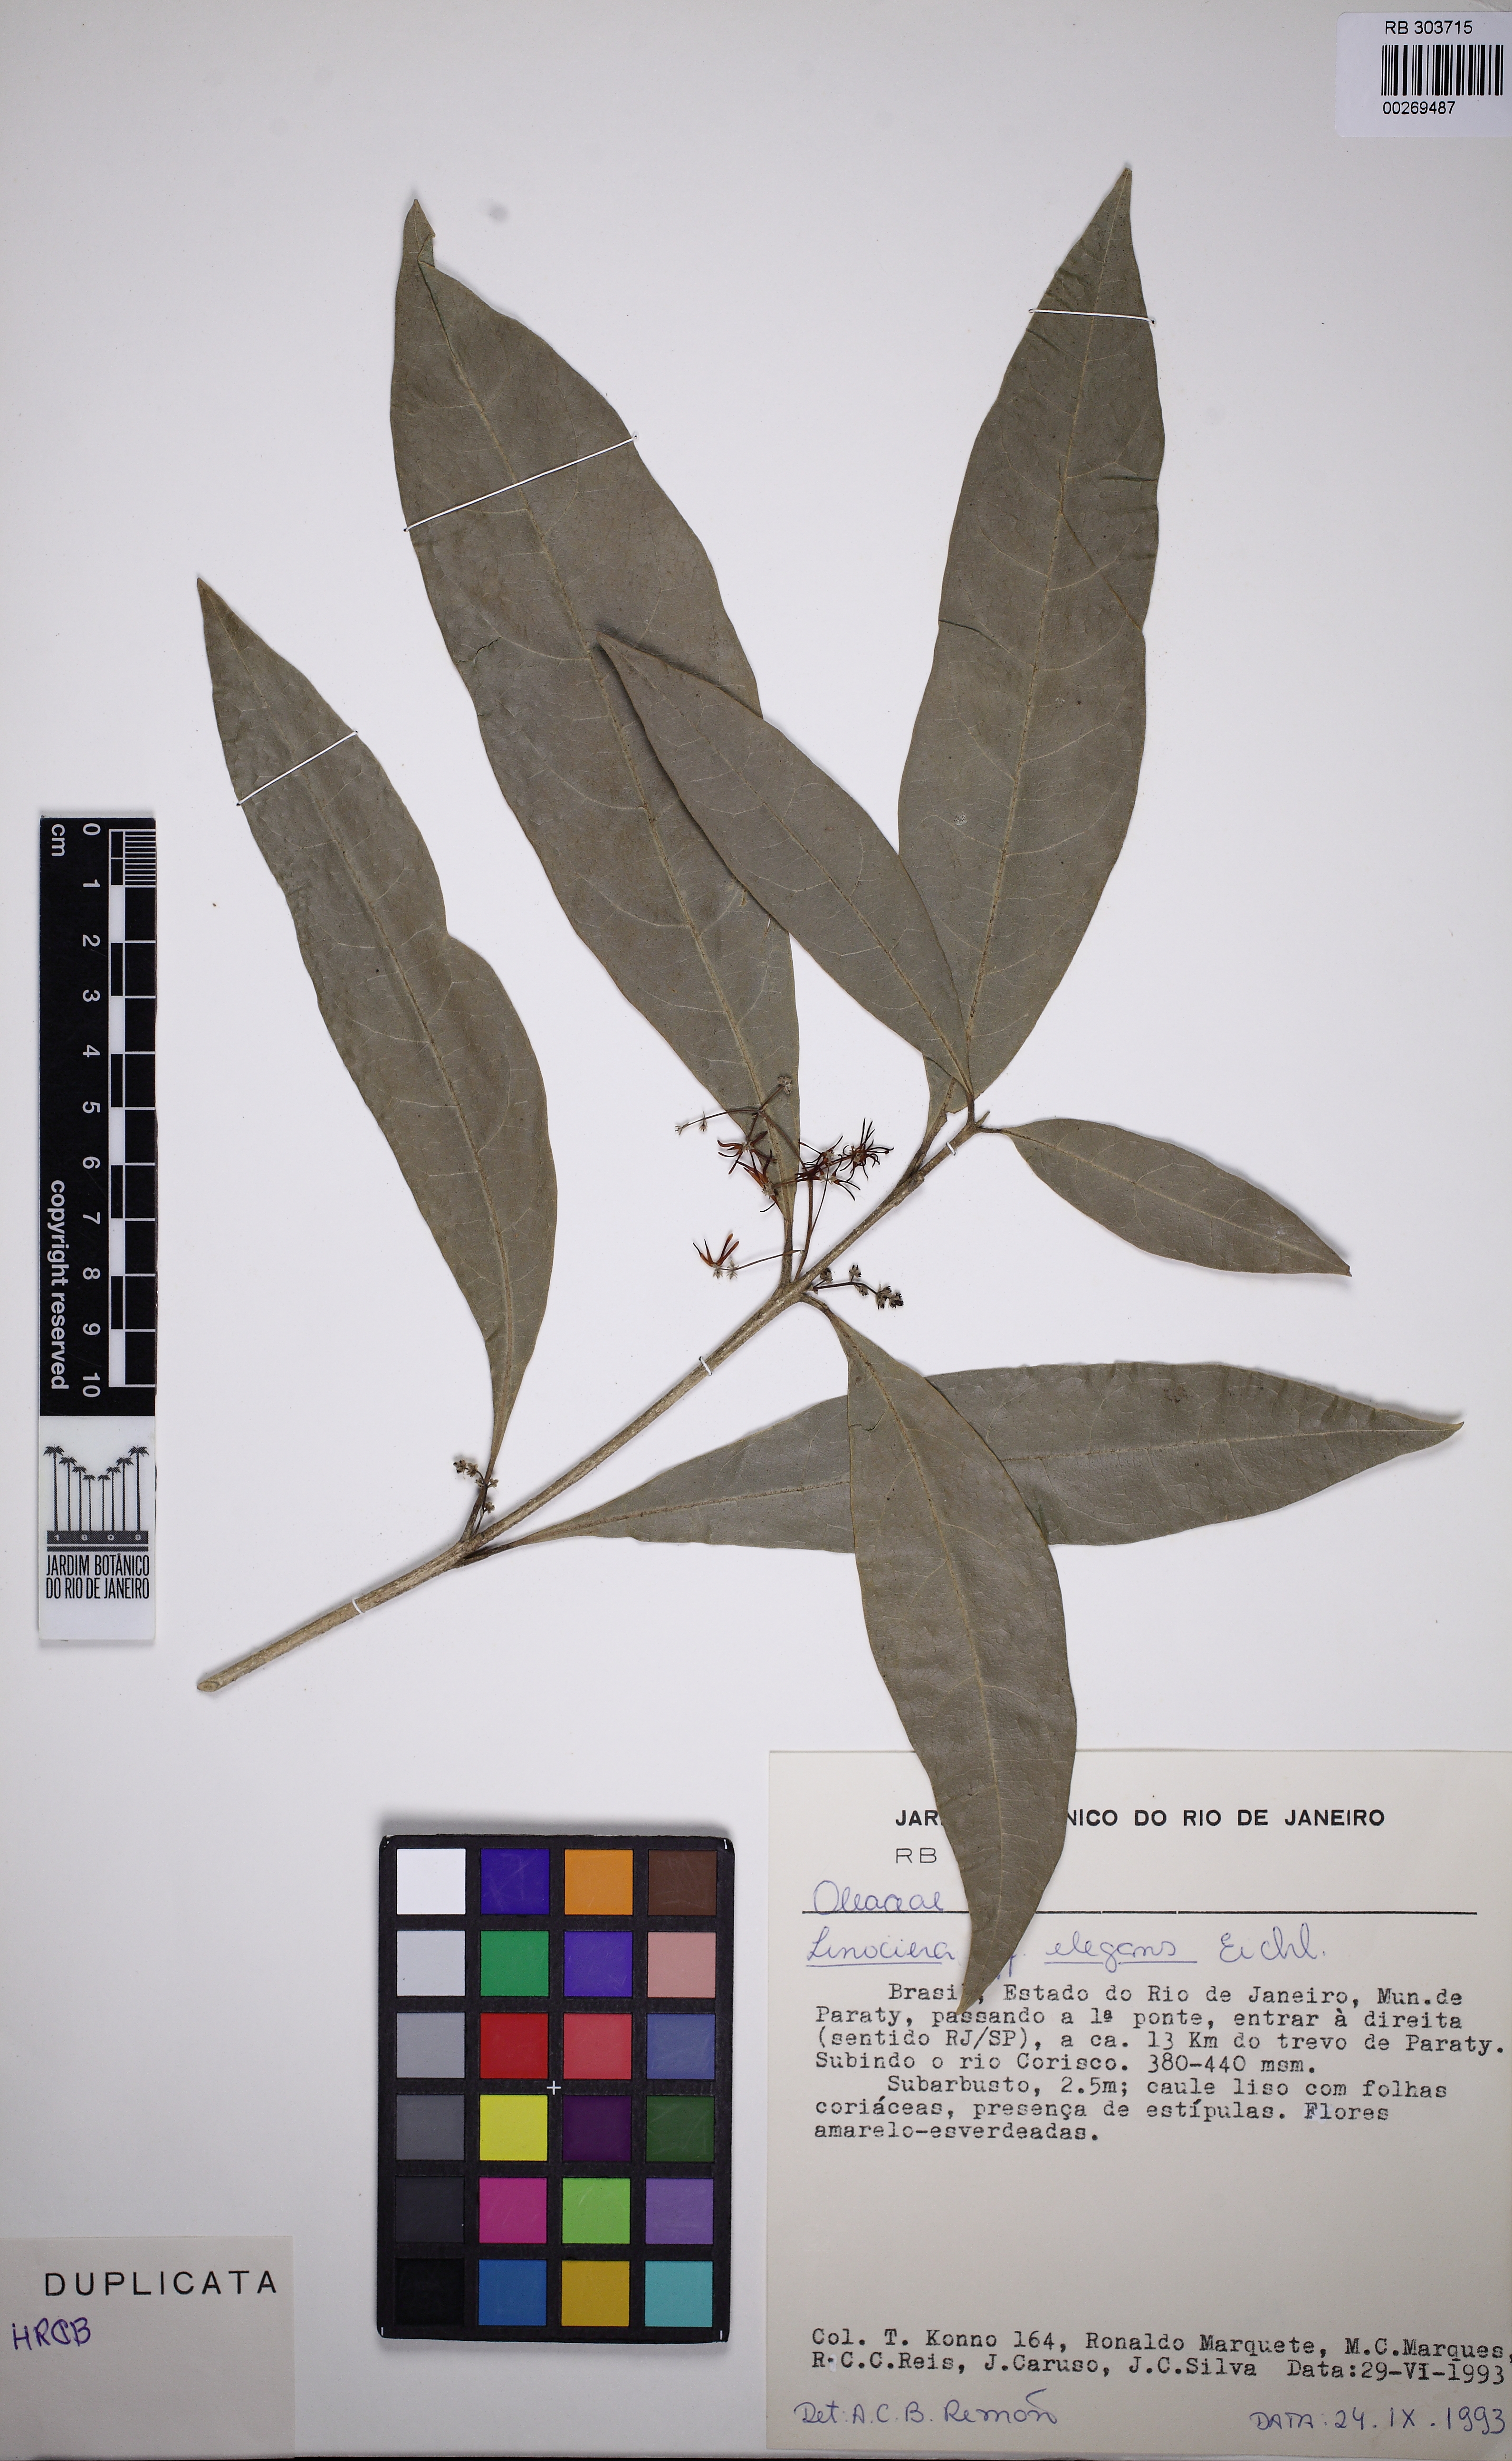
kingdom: Plantae
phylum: Tracheophyta
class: Magnoliopsida
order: Lamiales
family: Oleaceae
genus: Chionanthus
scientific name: Chionanthus crassifolius
